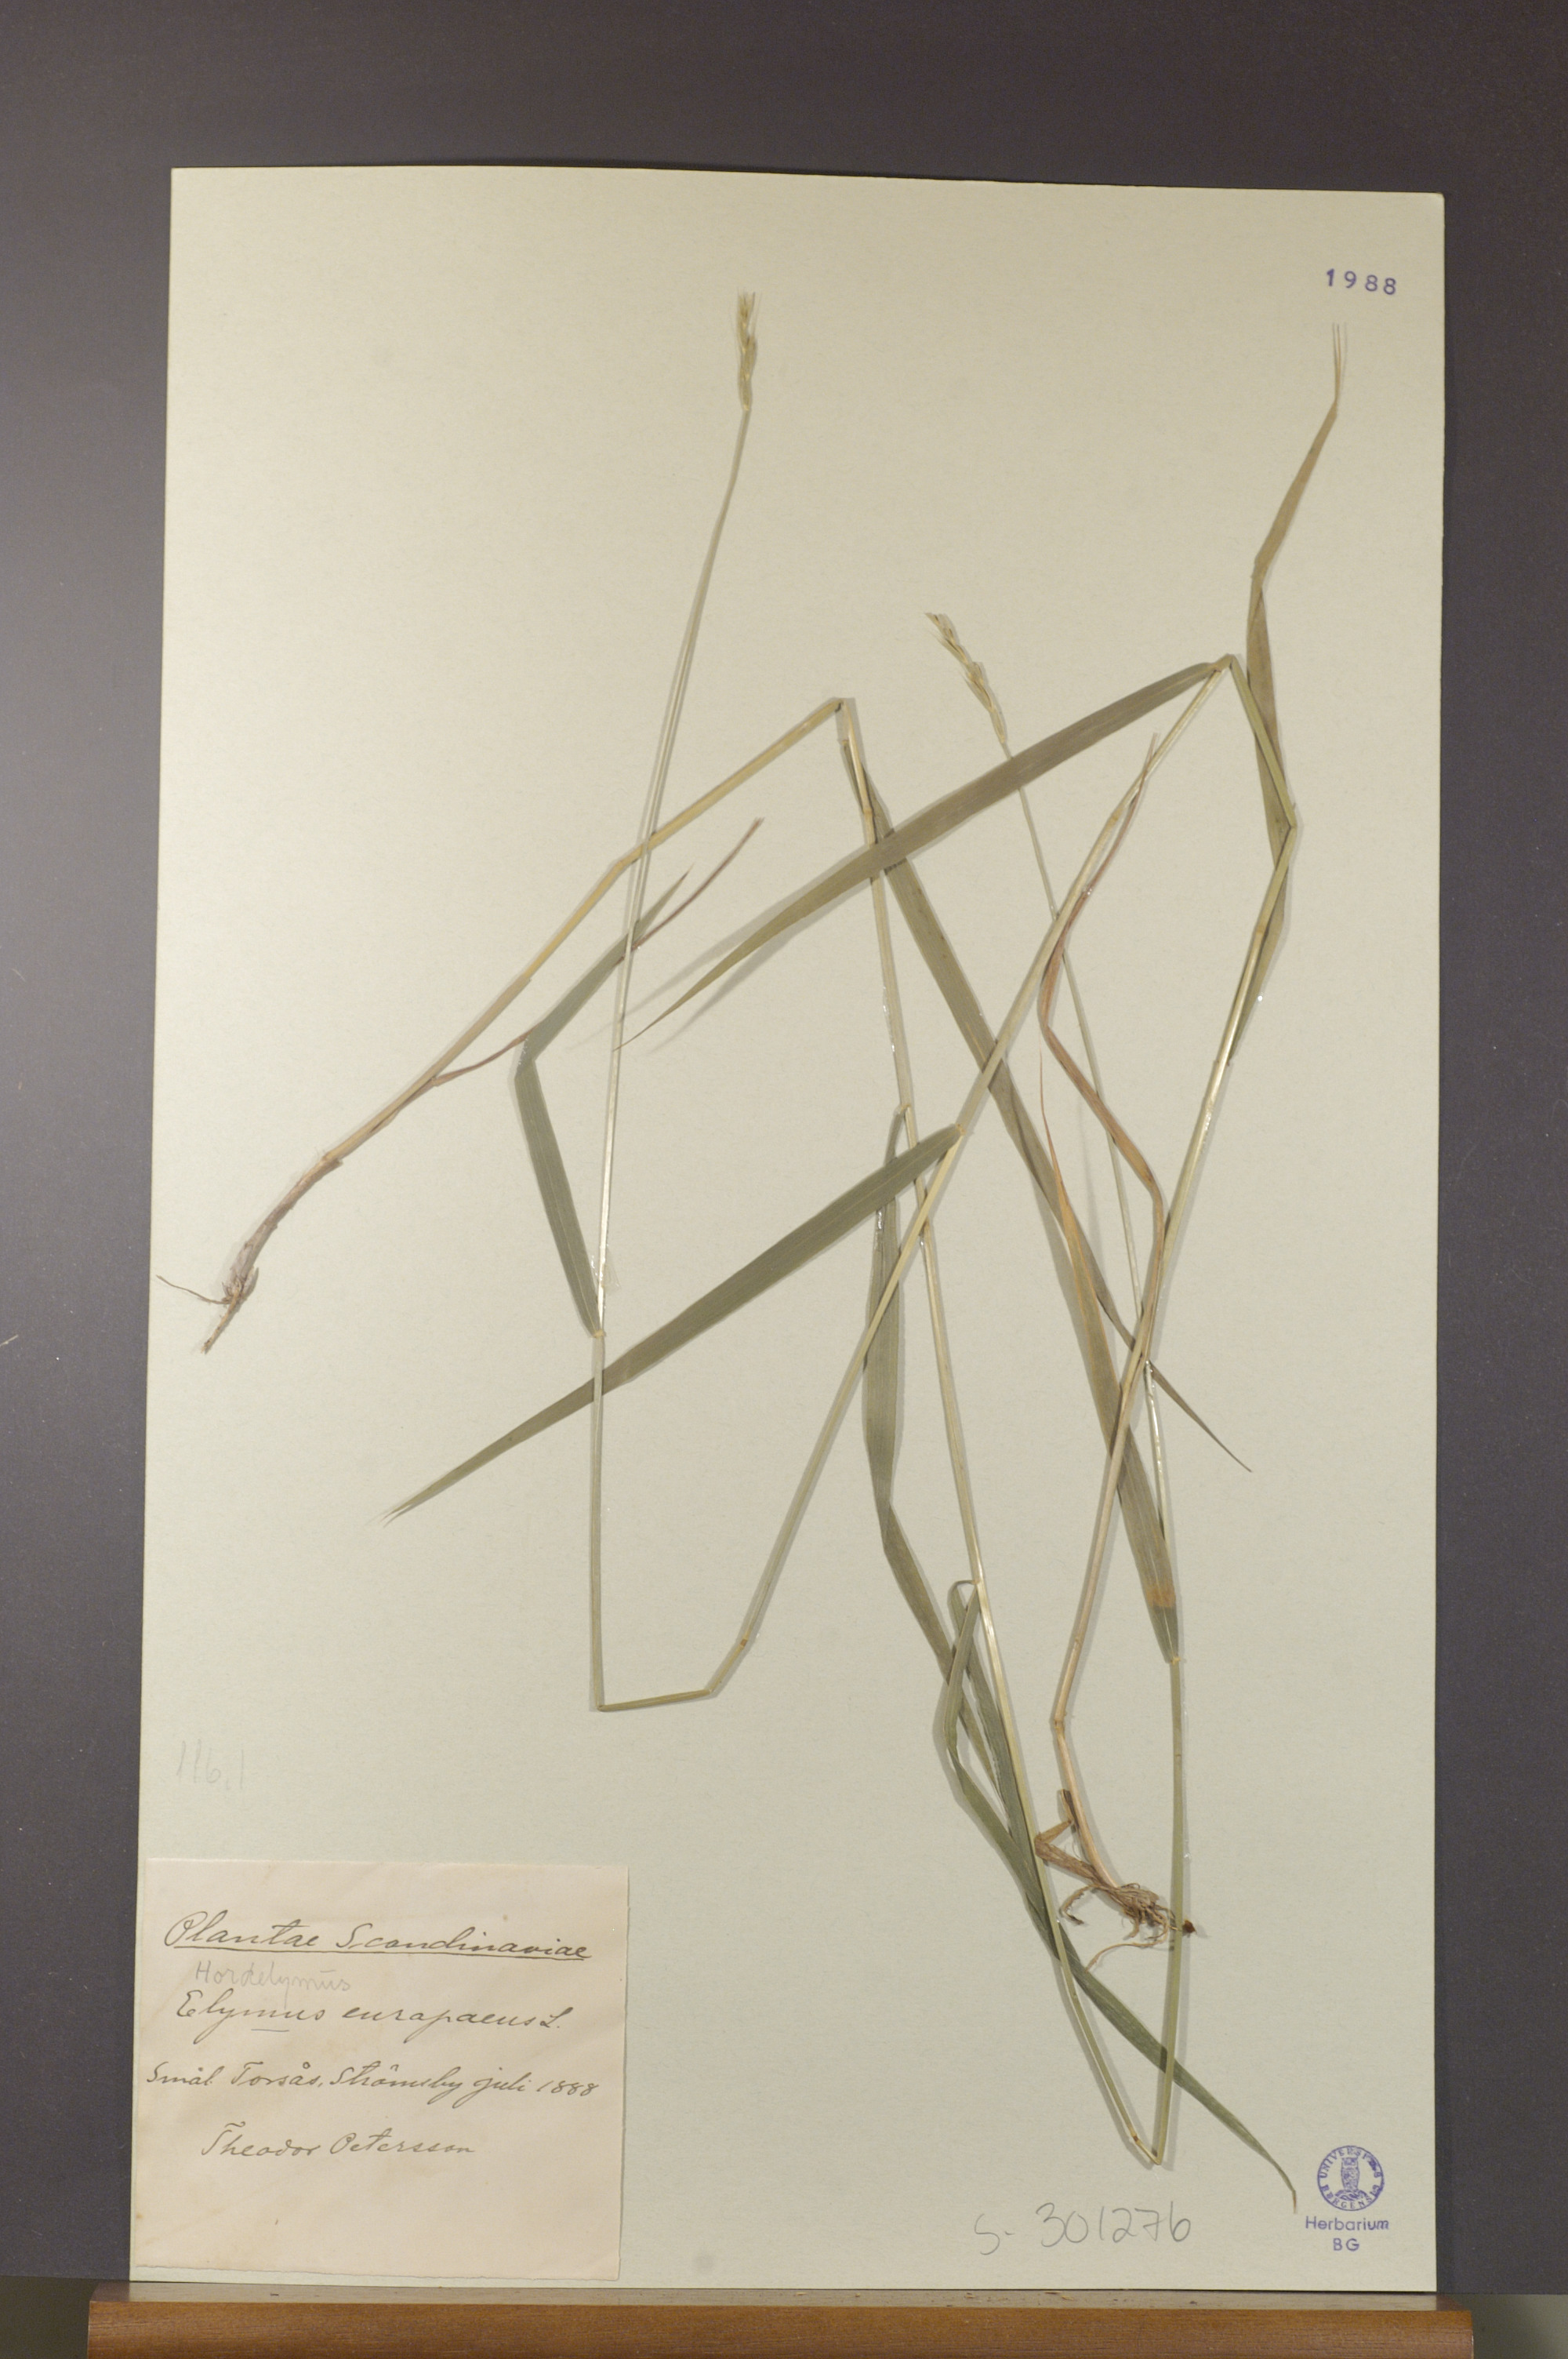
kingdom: Plantae
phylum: Tracheophyta
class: Liliopsida
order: Poales
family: Poaceae
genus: Hordelymus
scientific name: Hordelymus europaeus
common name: Wood-barley
